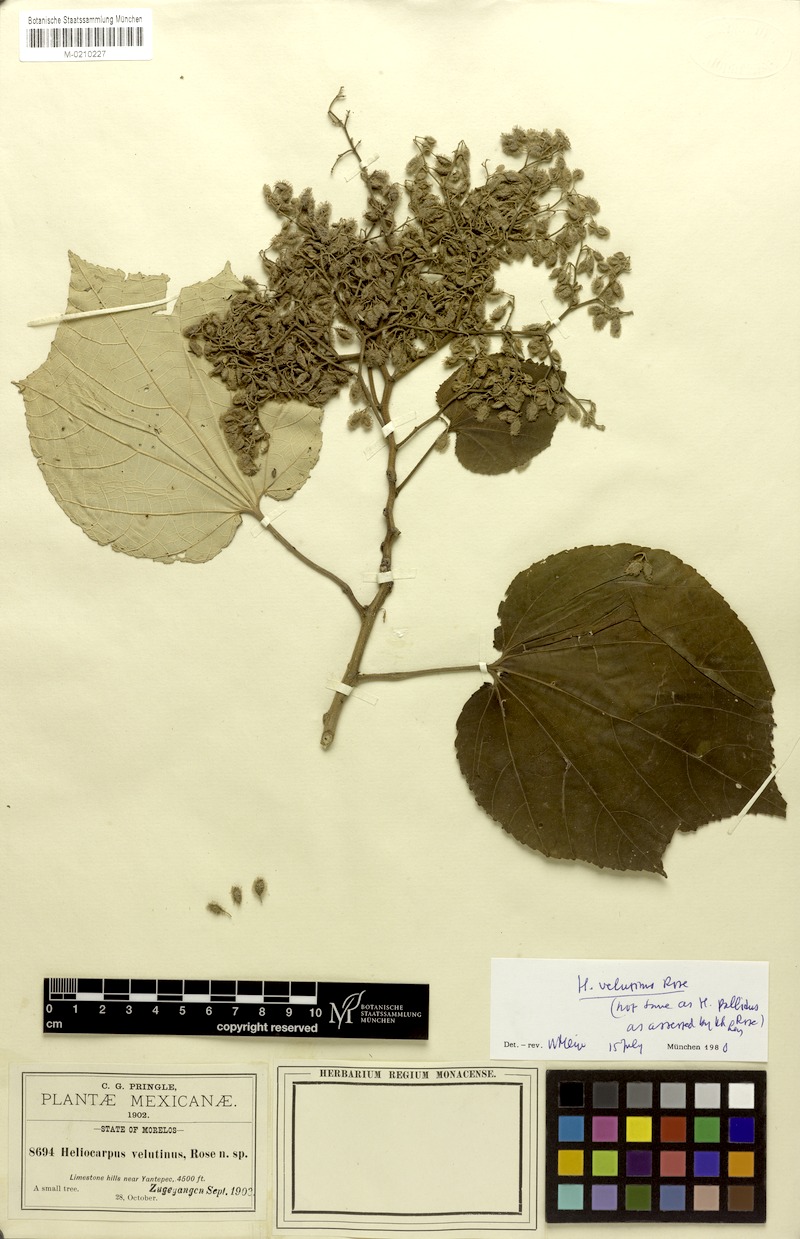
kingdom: Plantae
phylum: Tracheophyta
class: Magnoliopsida
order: Malvales
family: Malvaceae
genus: Heliocarpus
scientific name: Heliocarpus velutinus
